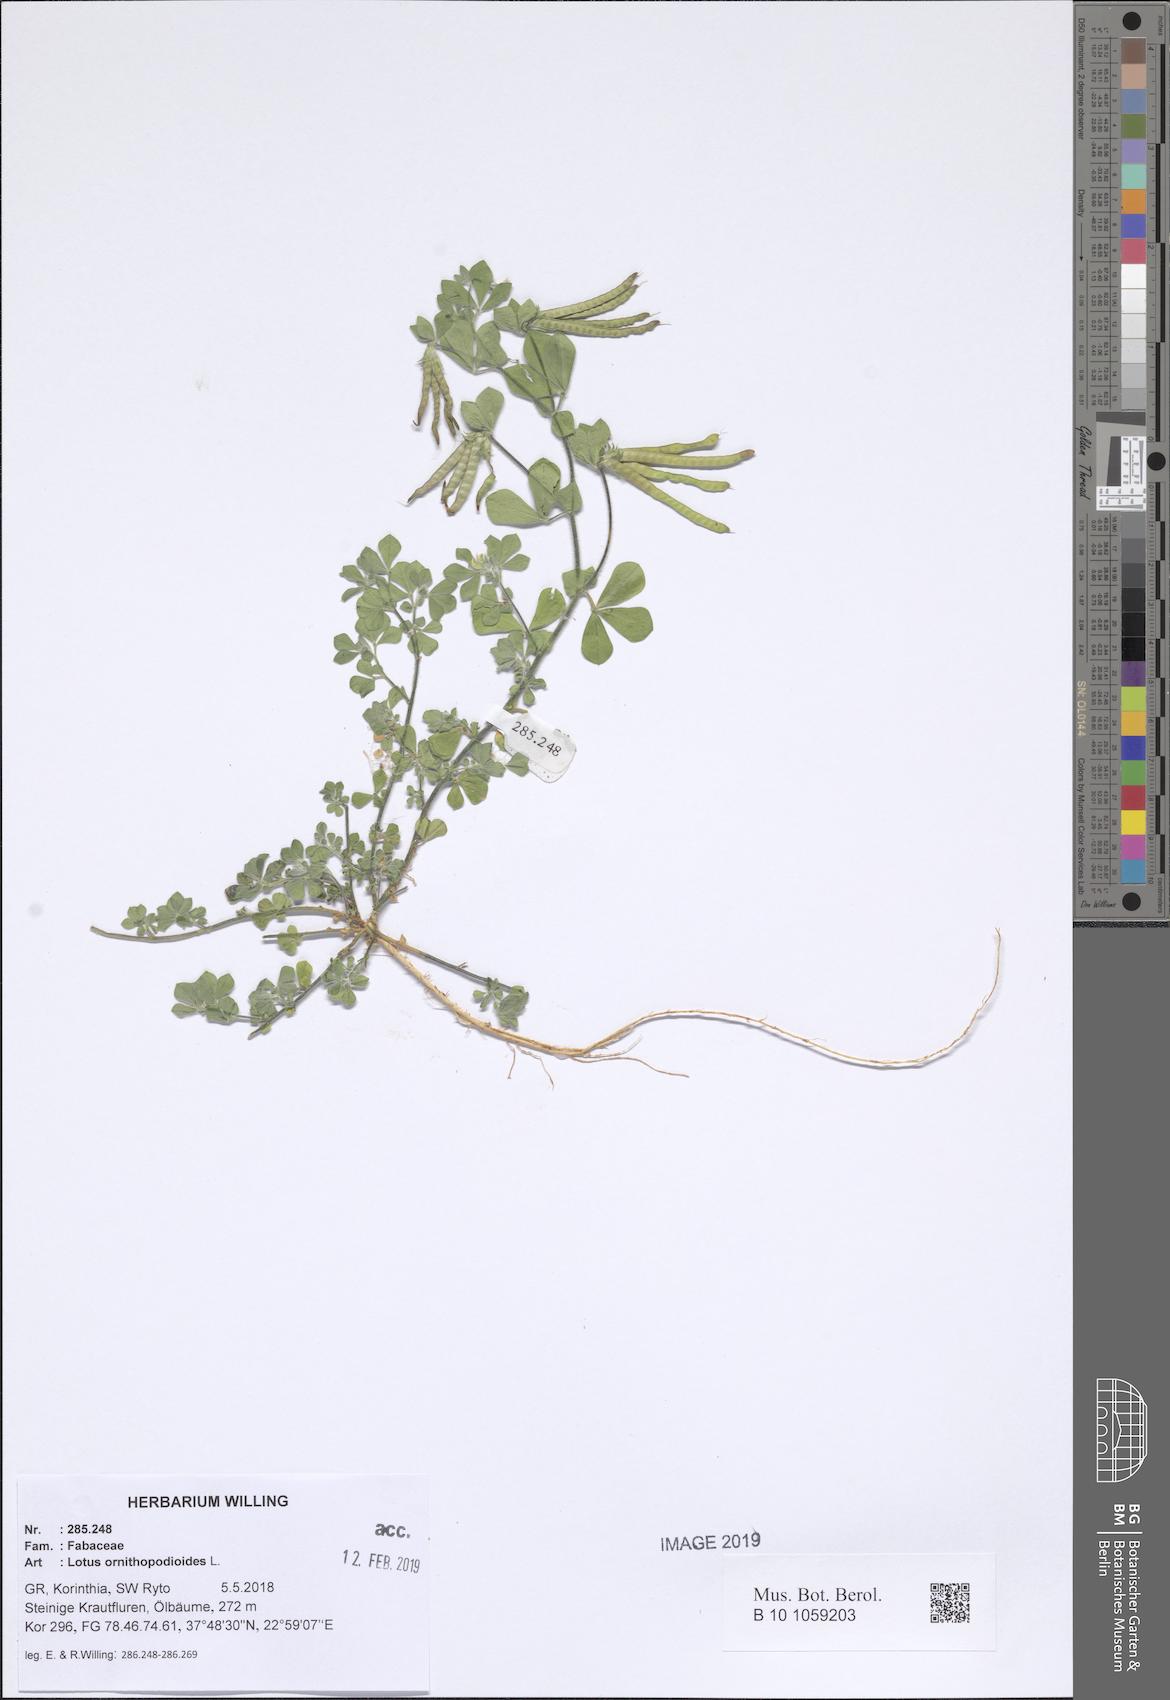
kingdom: Plantae
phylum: Tracheophyta
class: Magnoliopsida
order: Fabales
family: Fabaceae
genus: Lotus
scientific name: Lotus ornithopodioides
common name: Southern bird's-foot trefoil
